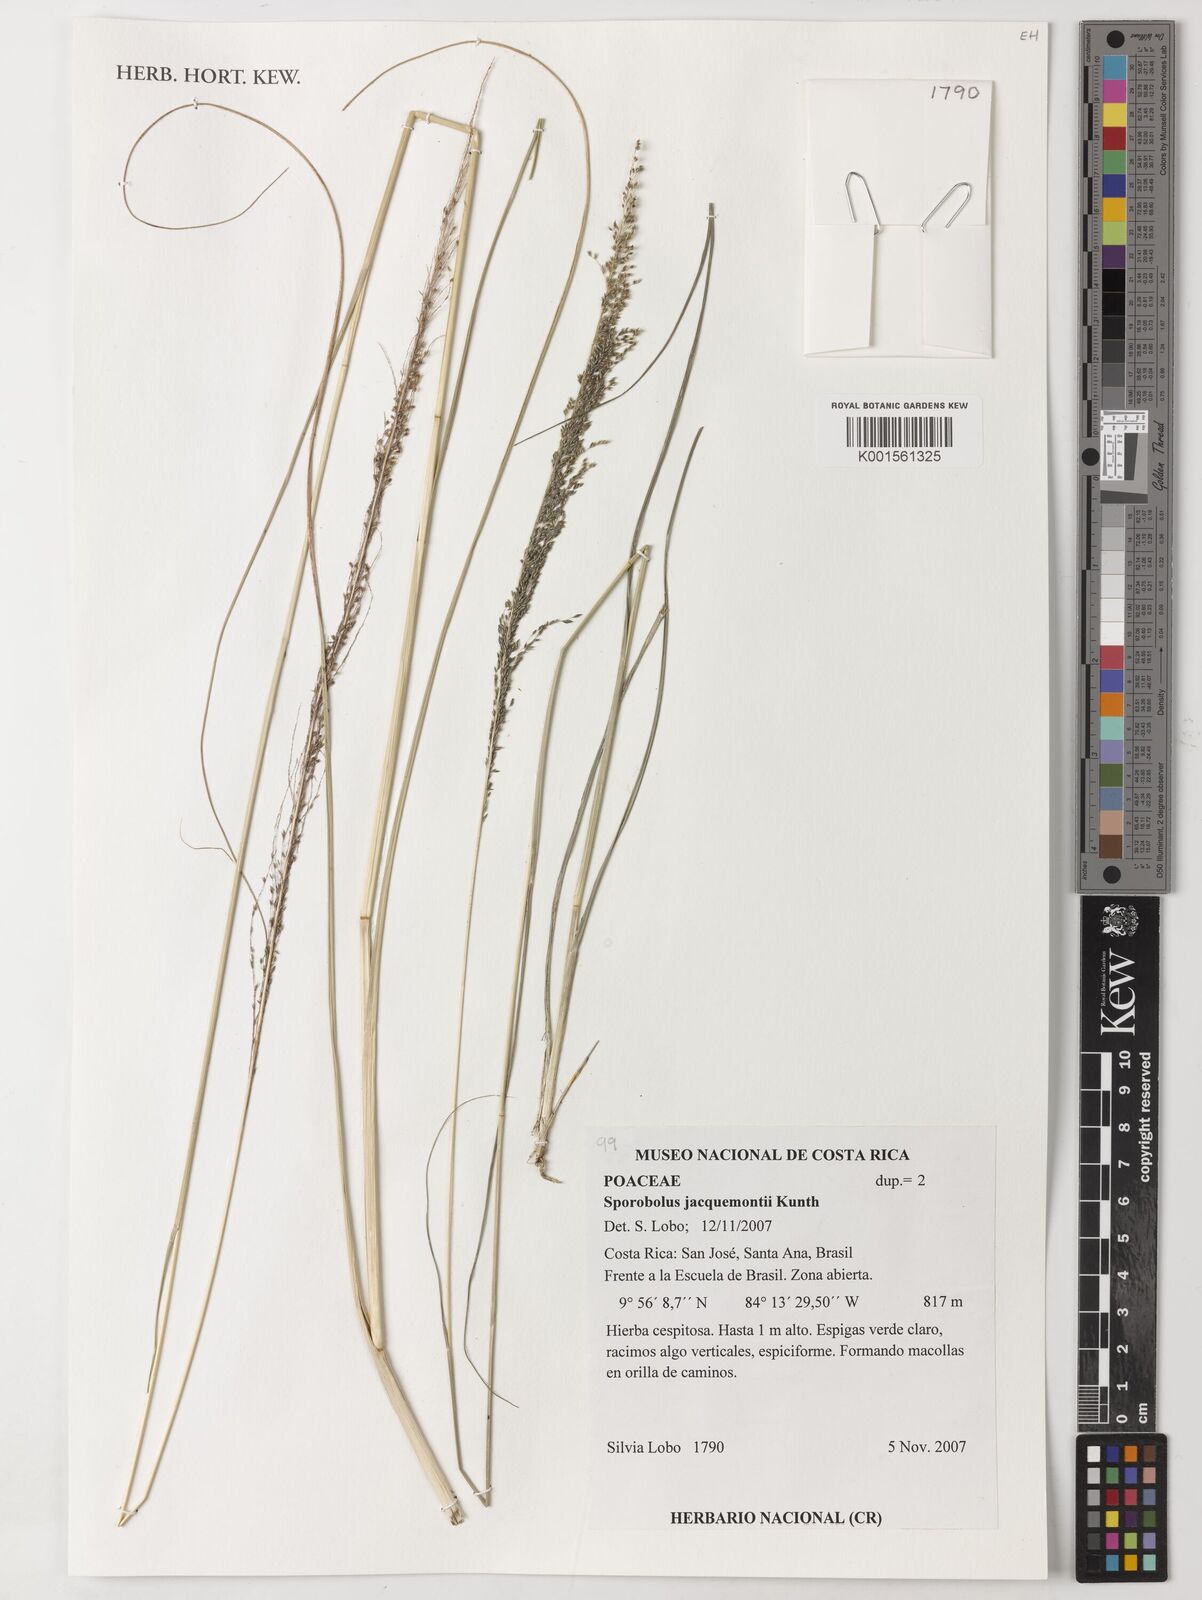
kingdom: Plantae
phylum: Tracheophyta
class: Liliopsida
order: Poales
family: Poaceae
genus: Sporobolus
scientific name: Sporobolus pyramidalis
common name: West indian dropseed
